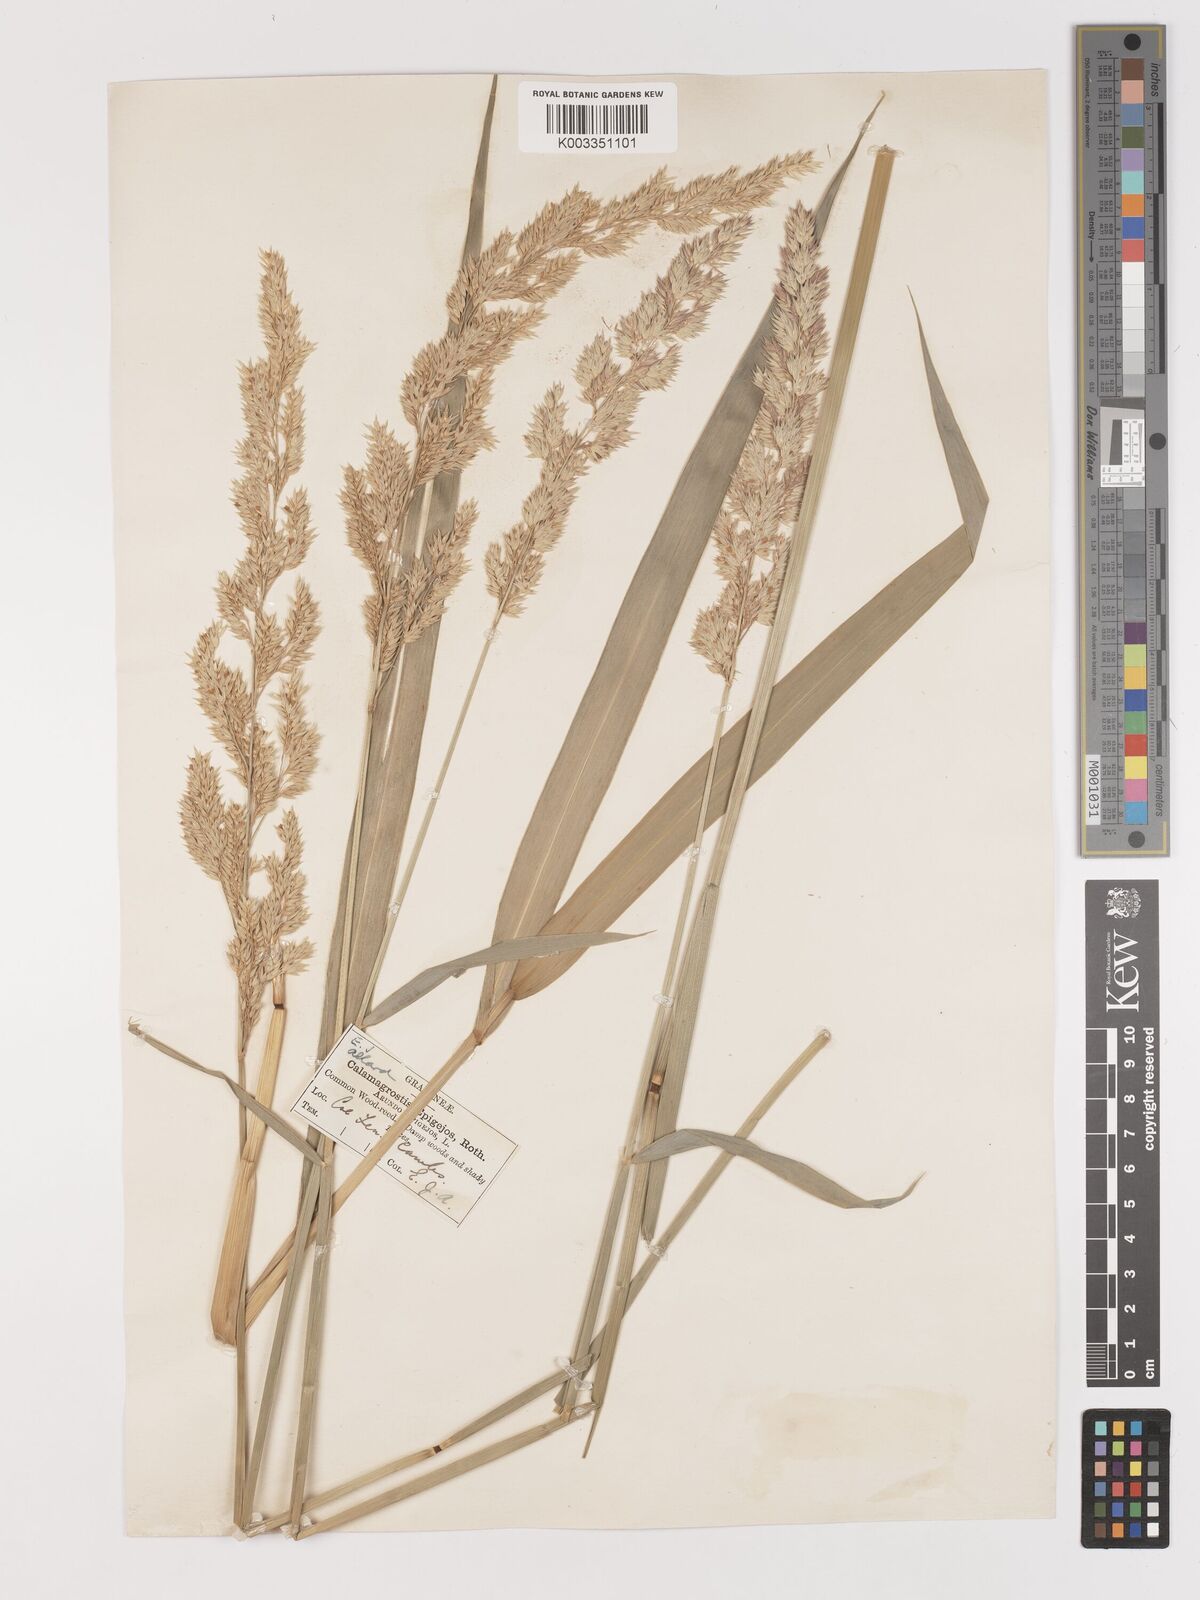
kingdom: Plantae
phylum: Tracheophyta
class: Liliopsida
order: Poales
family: Poaceae
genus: Calamagrostis
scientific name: Calamagrostis
